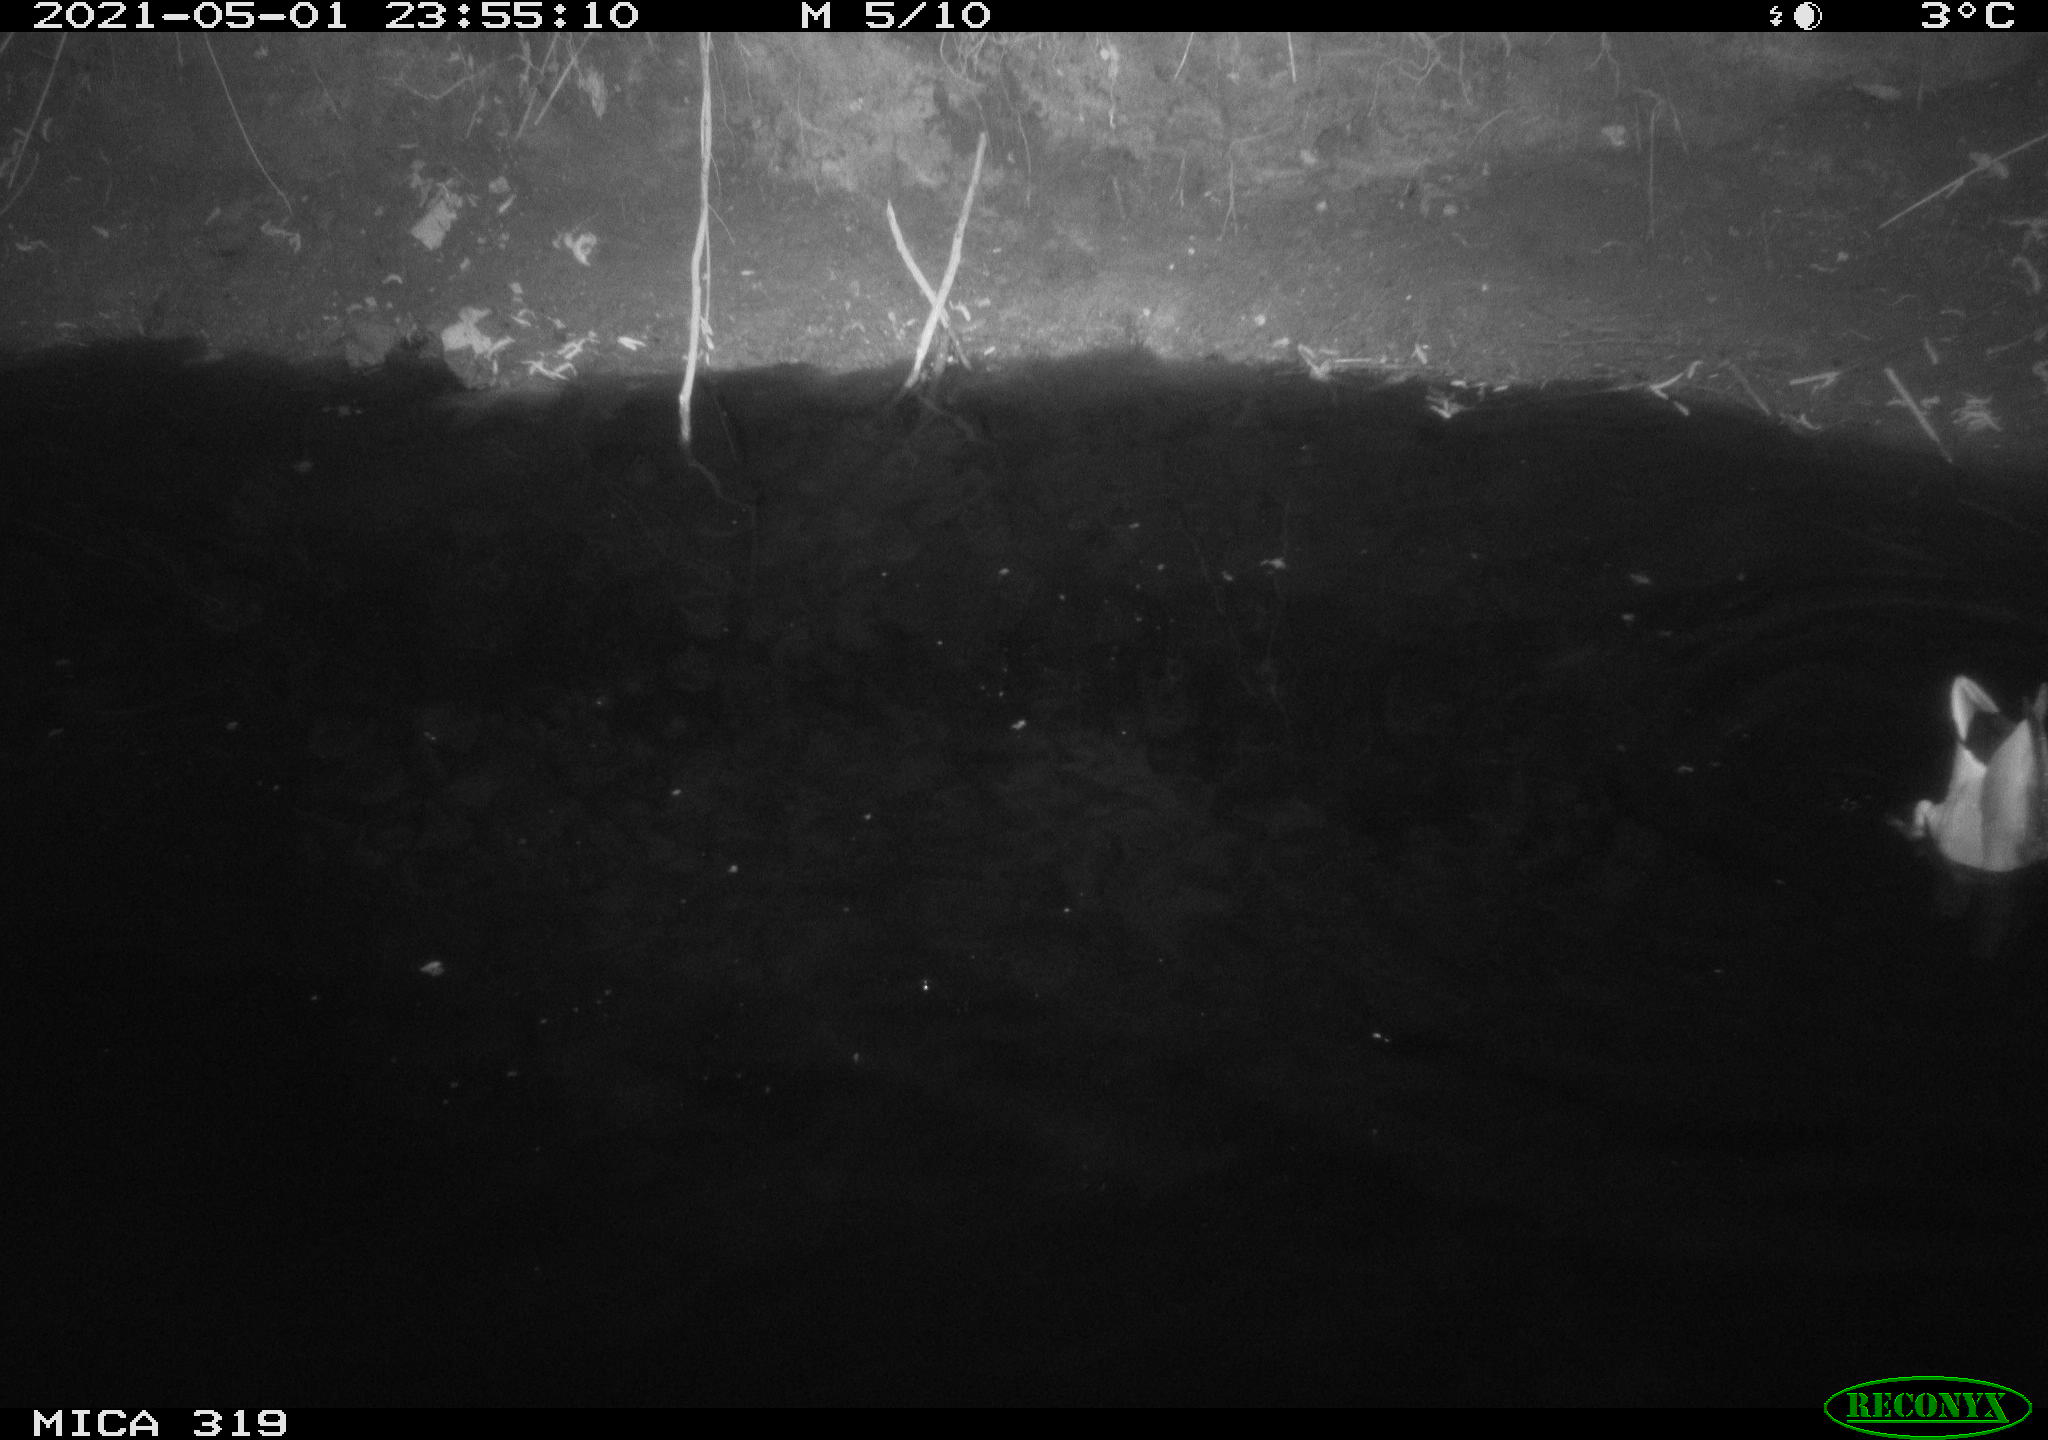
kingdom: Animalia
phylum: Chordata
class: Aves
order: Anseriformes
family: Anatidae
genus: Anas
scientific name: Anas platyrhynchos
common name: Mallard
